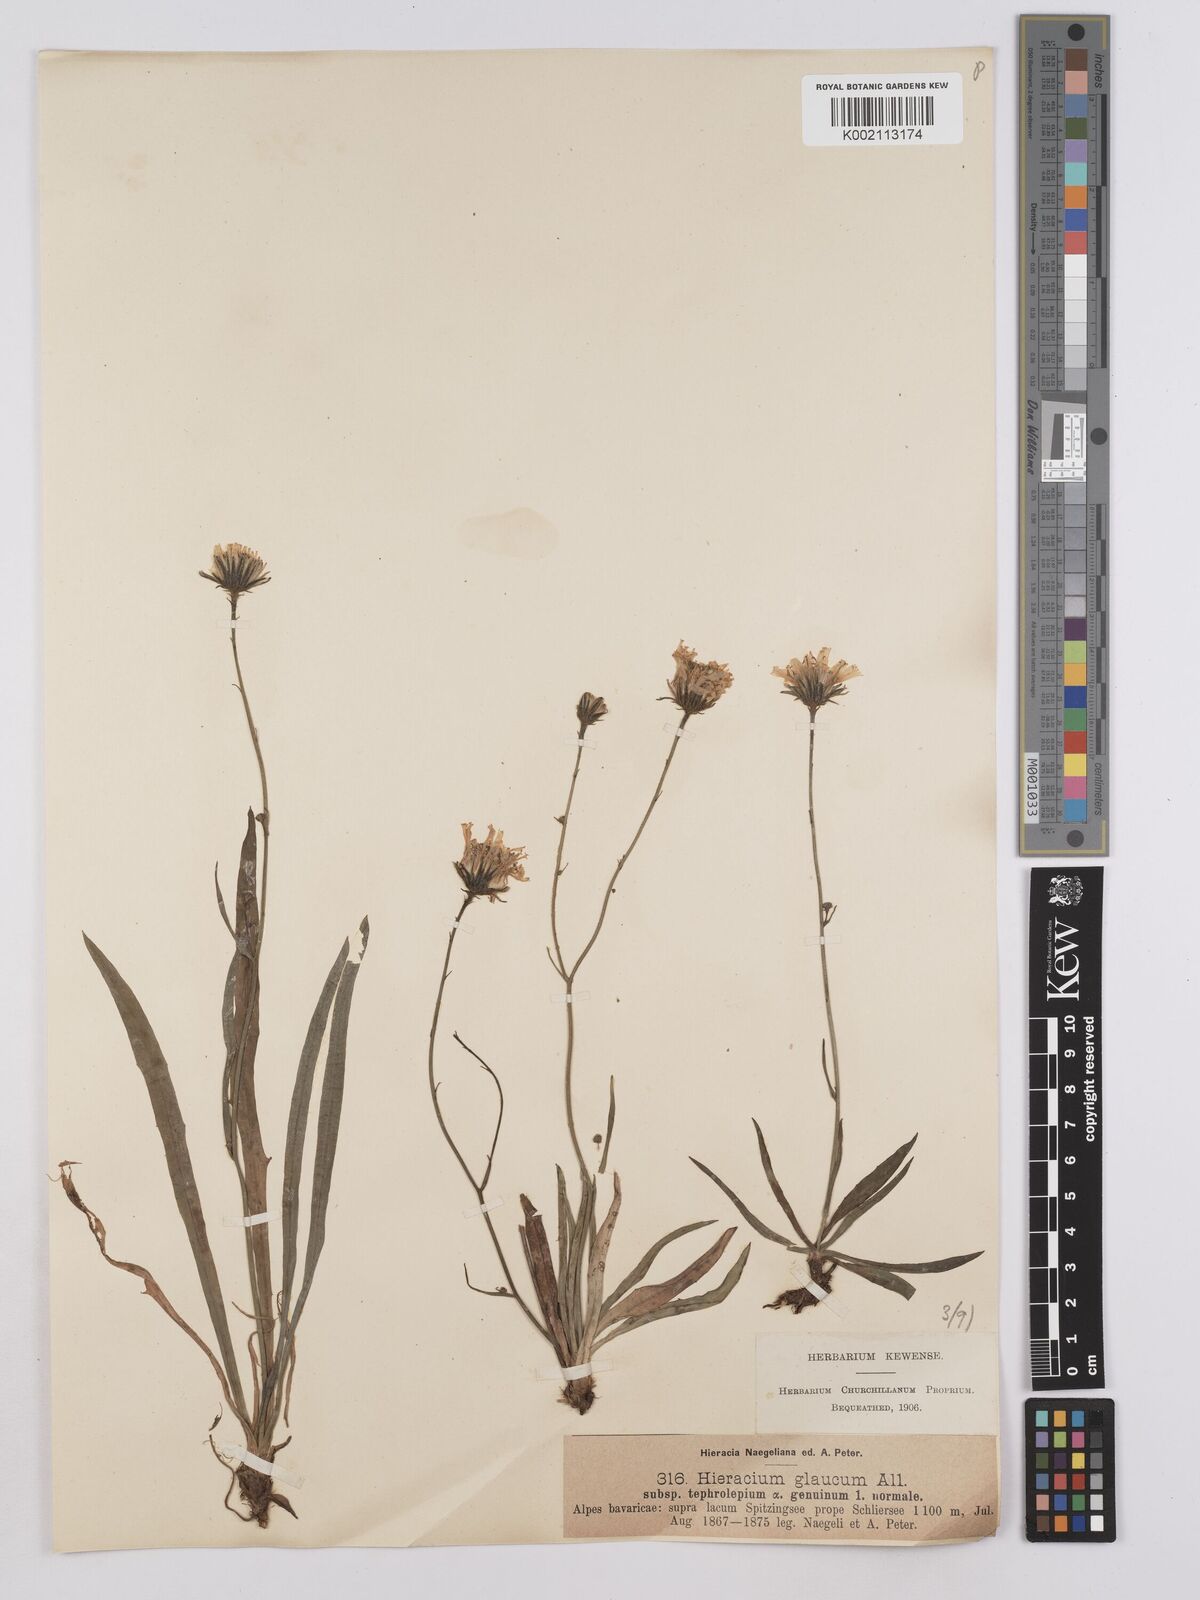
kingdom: Plantae
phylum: Tracheophyta
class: Magnoliopsida
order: Asterales
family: Asteraceae
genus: Hieracium
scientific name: Hieracium glaucum
